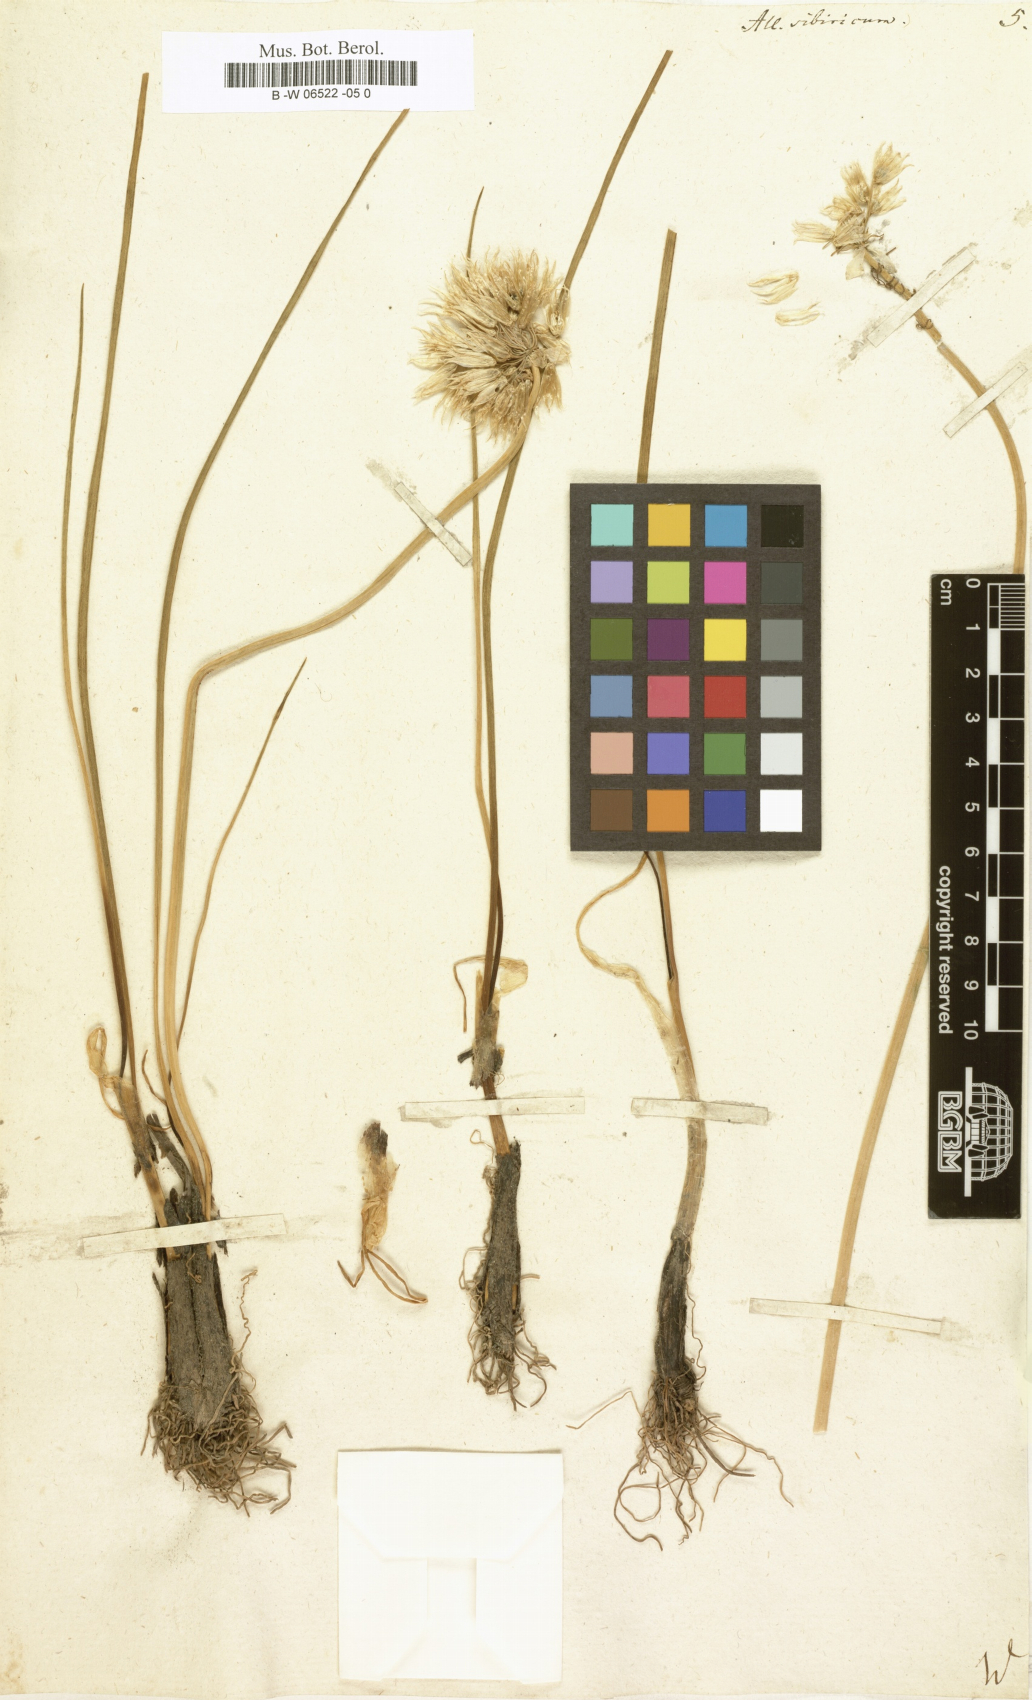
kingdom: Plantae
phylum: Tracheophyta
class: Liliopsida
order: Asparagales
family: Amaryllidaceae
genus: Allium
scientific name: Allium schoenoprasum
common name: Chives
